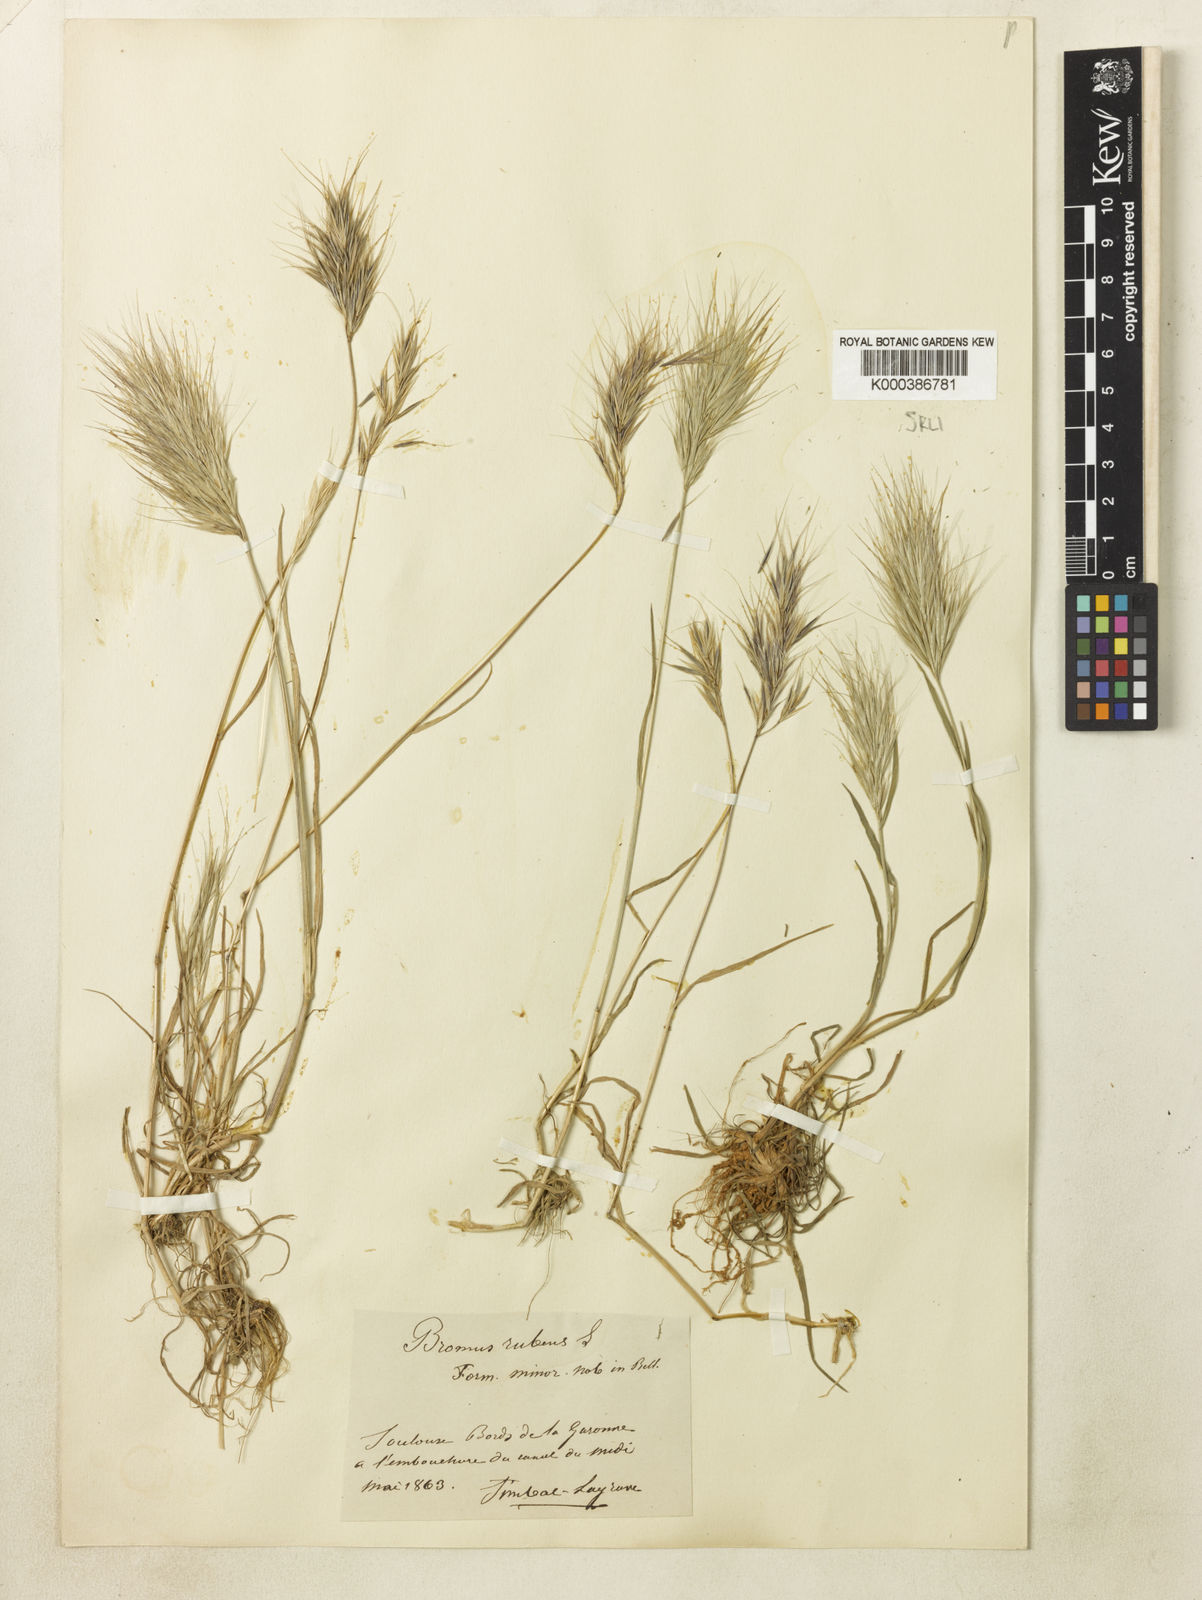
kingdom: Plantae
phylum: Tracheophyta
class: Liliopsida
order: Poales
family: Poaceae
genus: Bromus
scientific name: Bromus madritensis
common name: Compact brome
